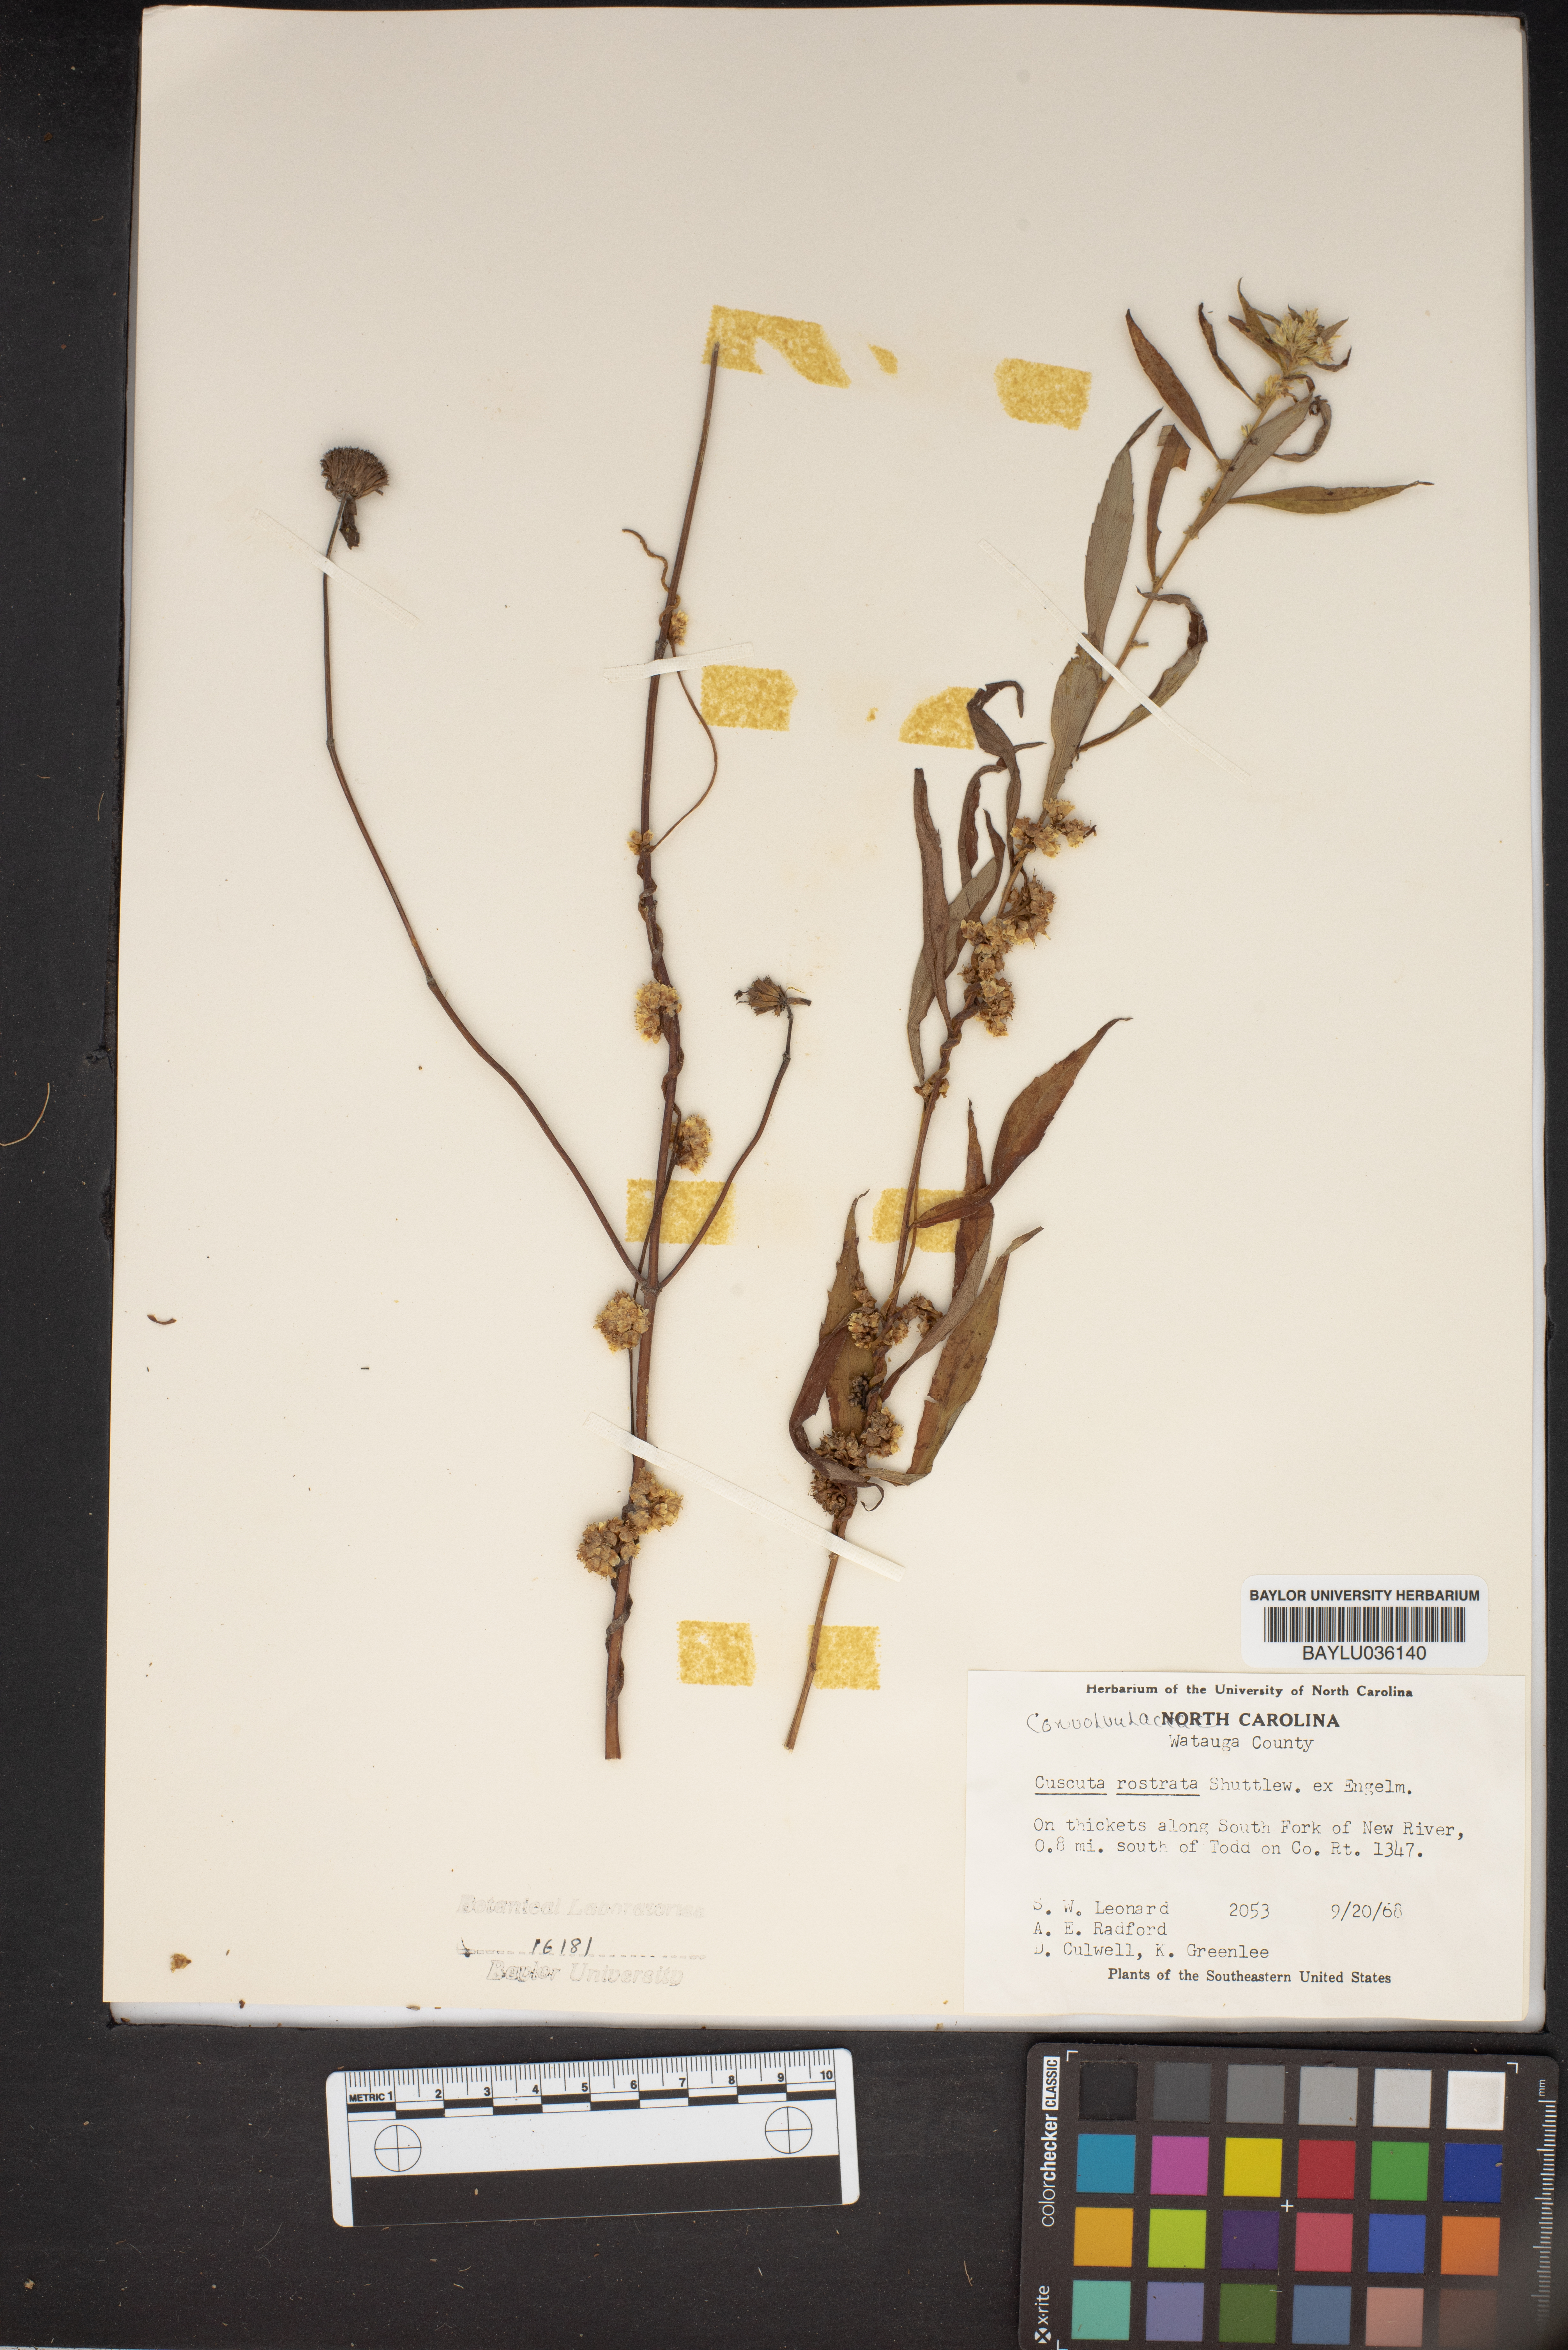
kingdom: Plantae
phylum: Tracheophyta
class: Magnoliopsida
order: Solanales
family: Convolvulaceae
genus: Cuscuta
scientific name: Cuscuta rostrata
